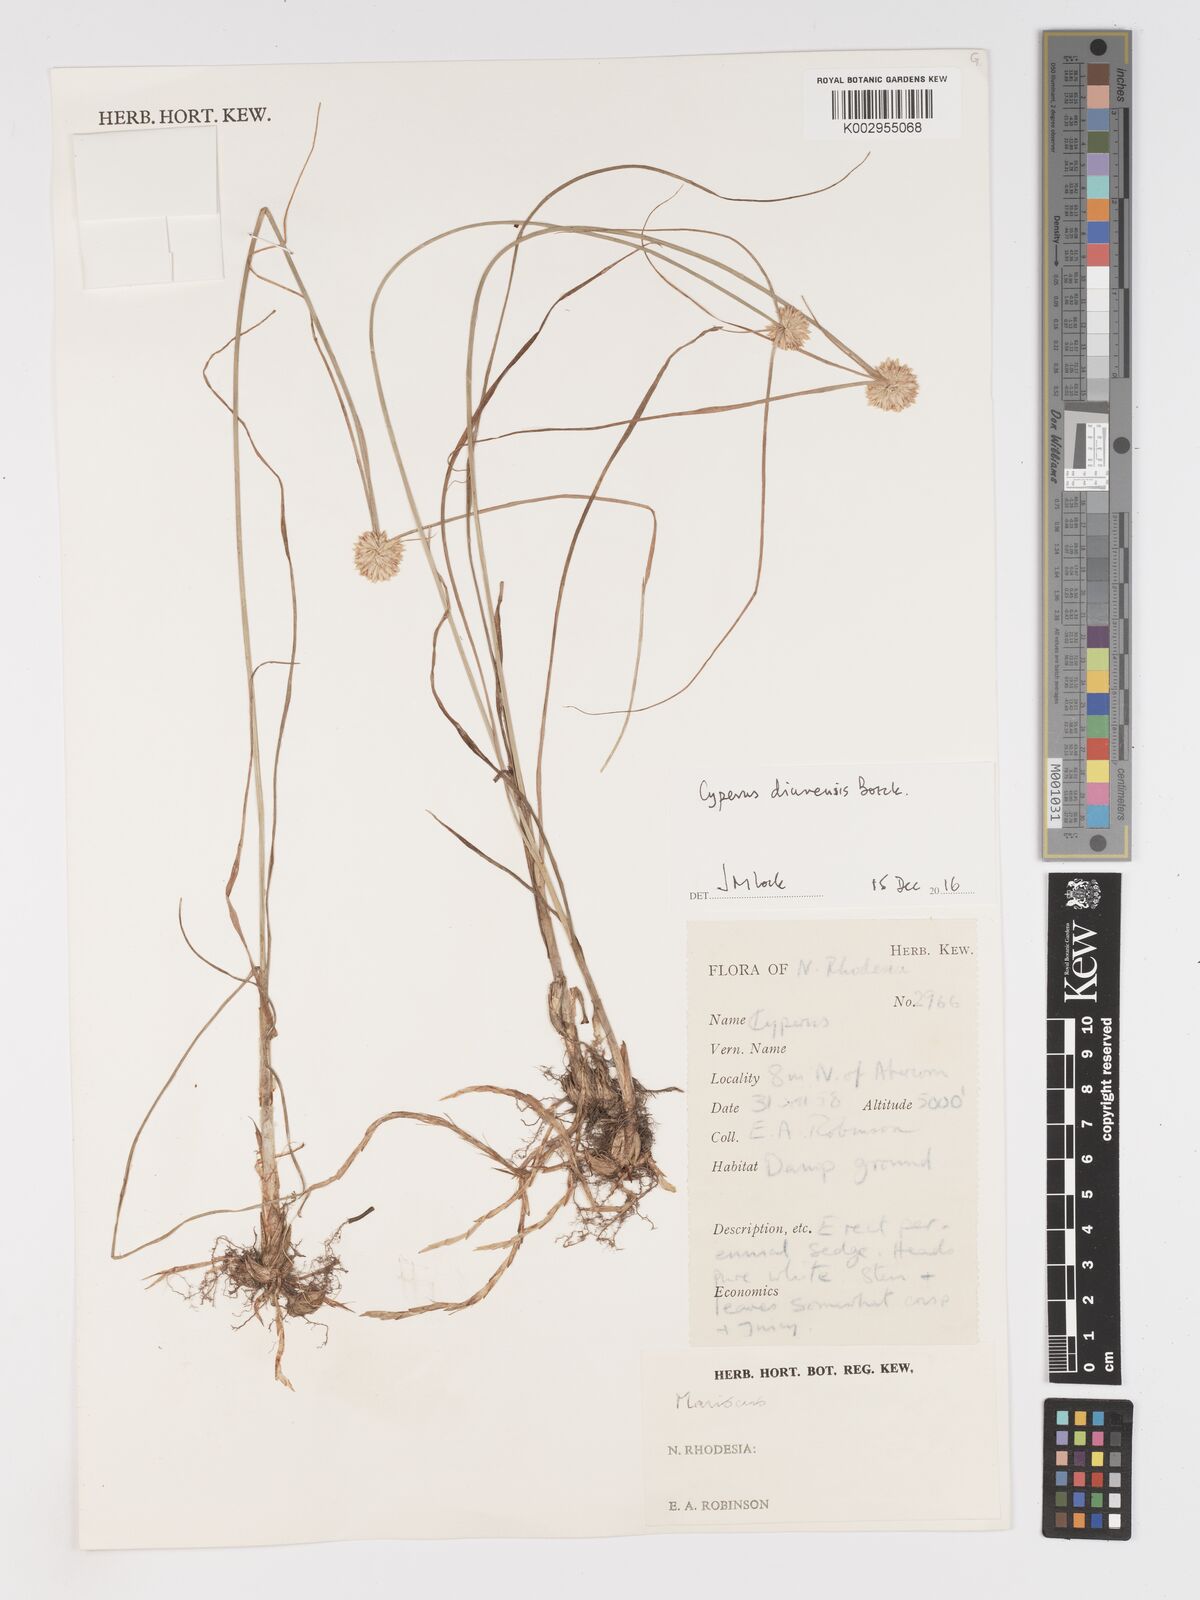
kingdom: Plantae
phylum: Tracheophyta
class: Liliopsida
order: Poales
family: Cyperaceae
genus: Cyperus
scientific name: Cyperus diurensis
